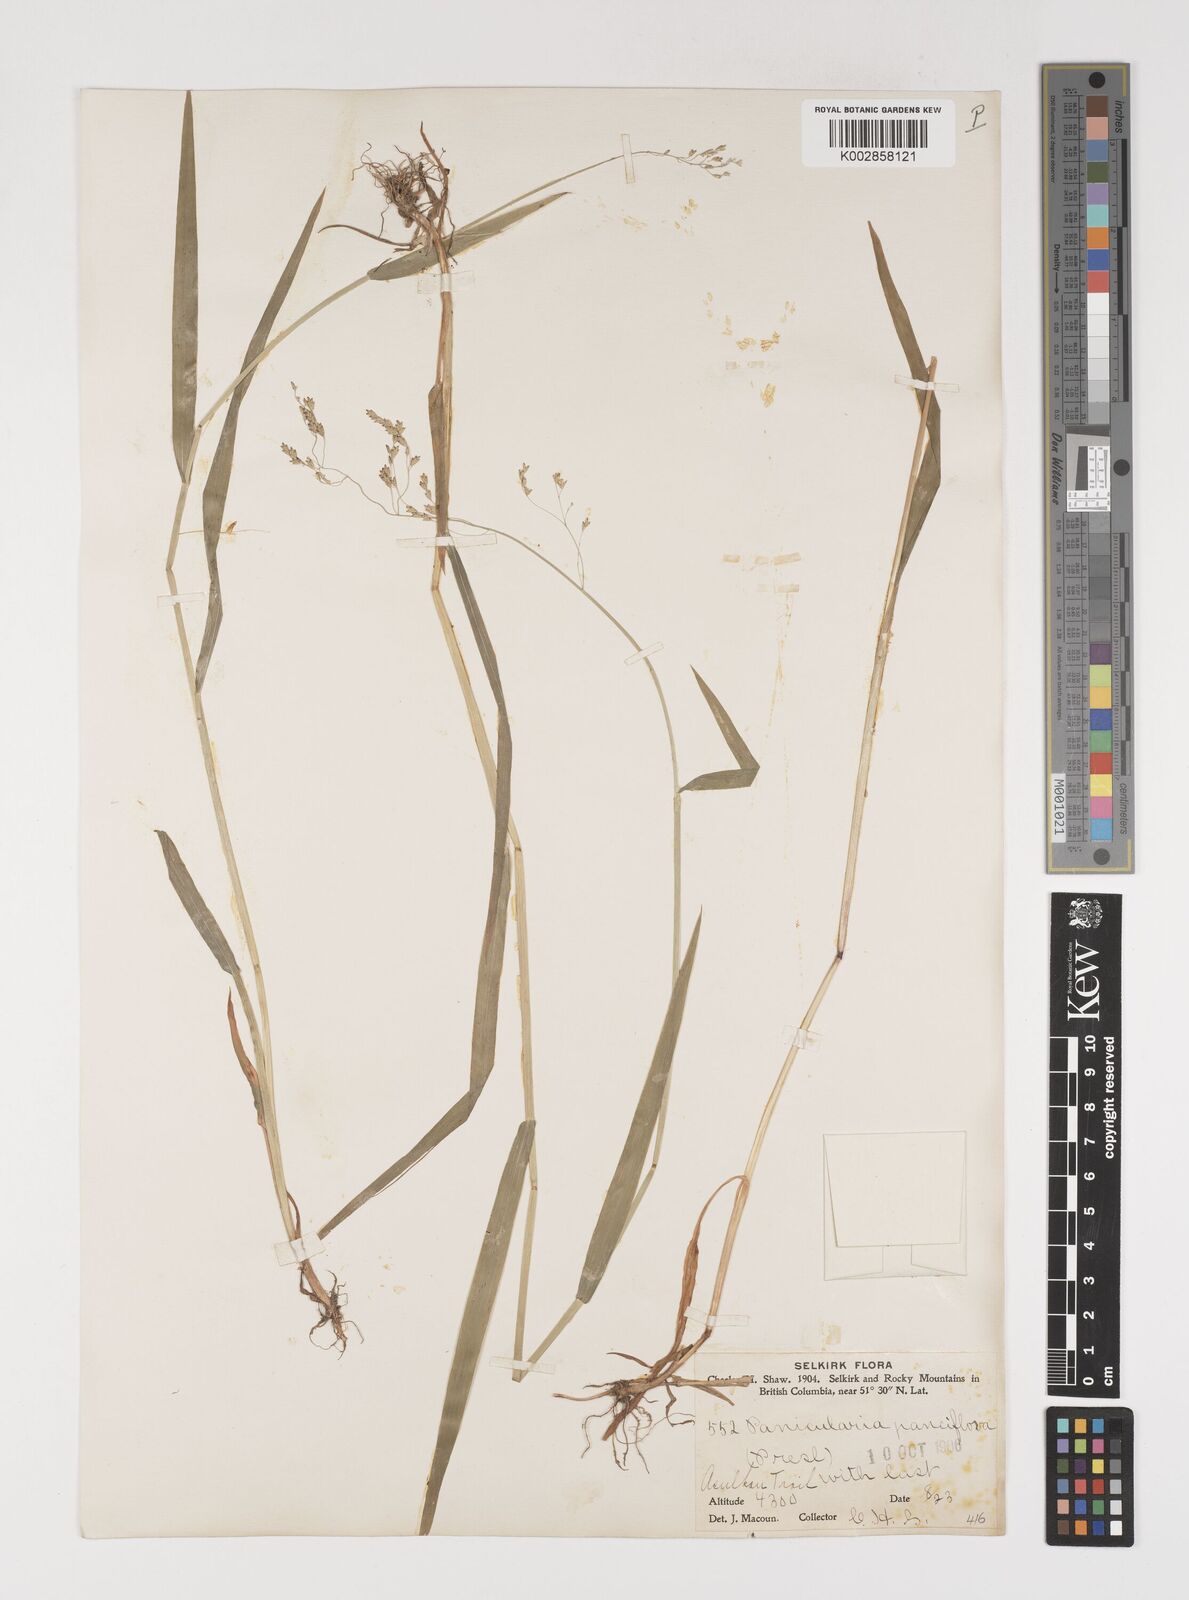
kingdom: Plantae
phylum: Tracheophyta
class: Liliopsida
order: Poales
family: Poaceae
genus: Torreyochloa
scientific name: Torreyochloa pallida
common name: Pale false mannagrass
